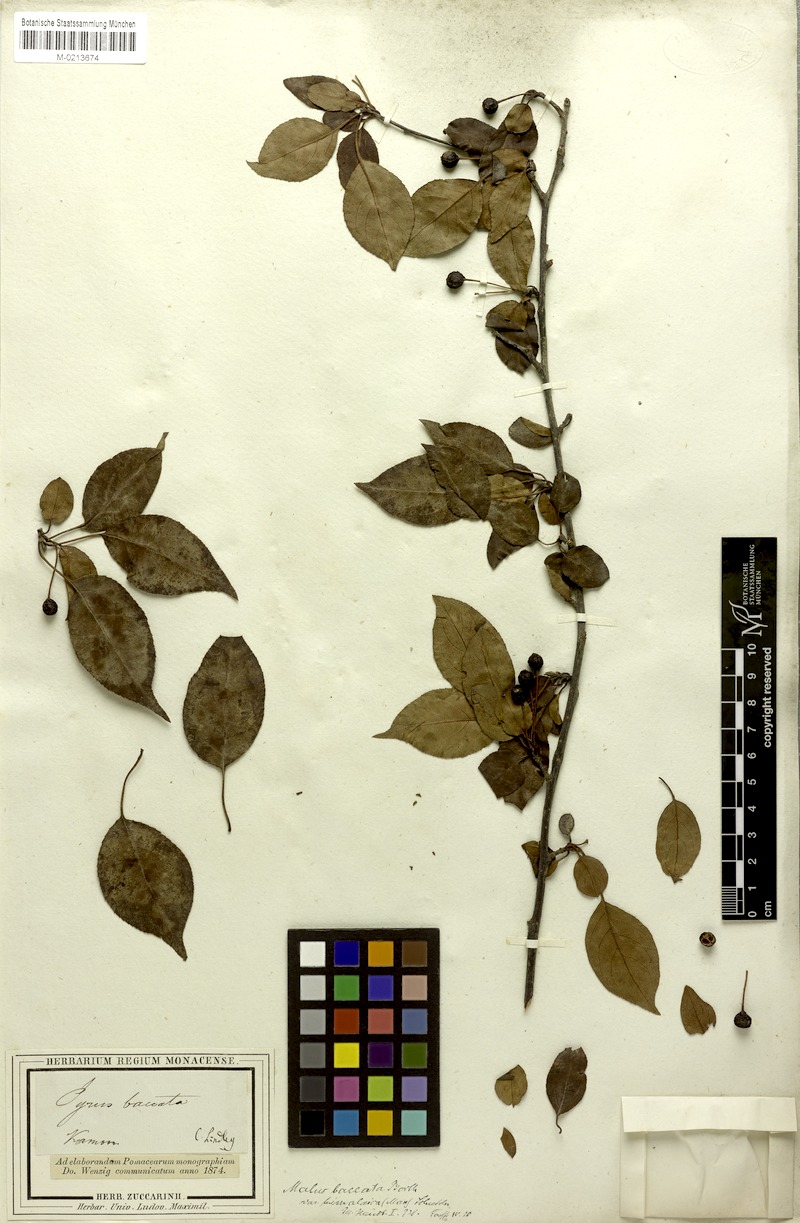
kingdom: Plantae
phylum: Tracheophyta
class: Magnoliopsida
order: Rosales
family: Rosaceae
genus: Malus
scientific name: Malus baccata
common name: Siberian crab
